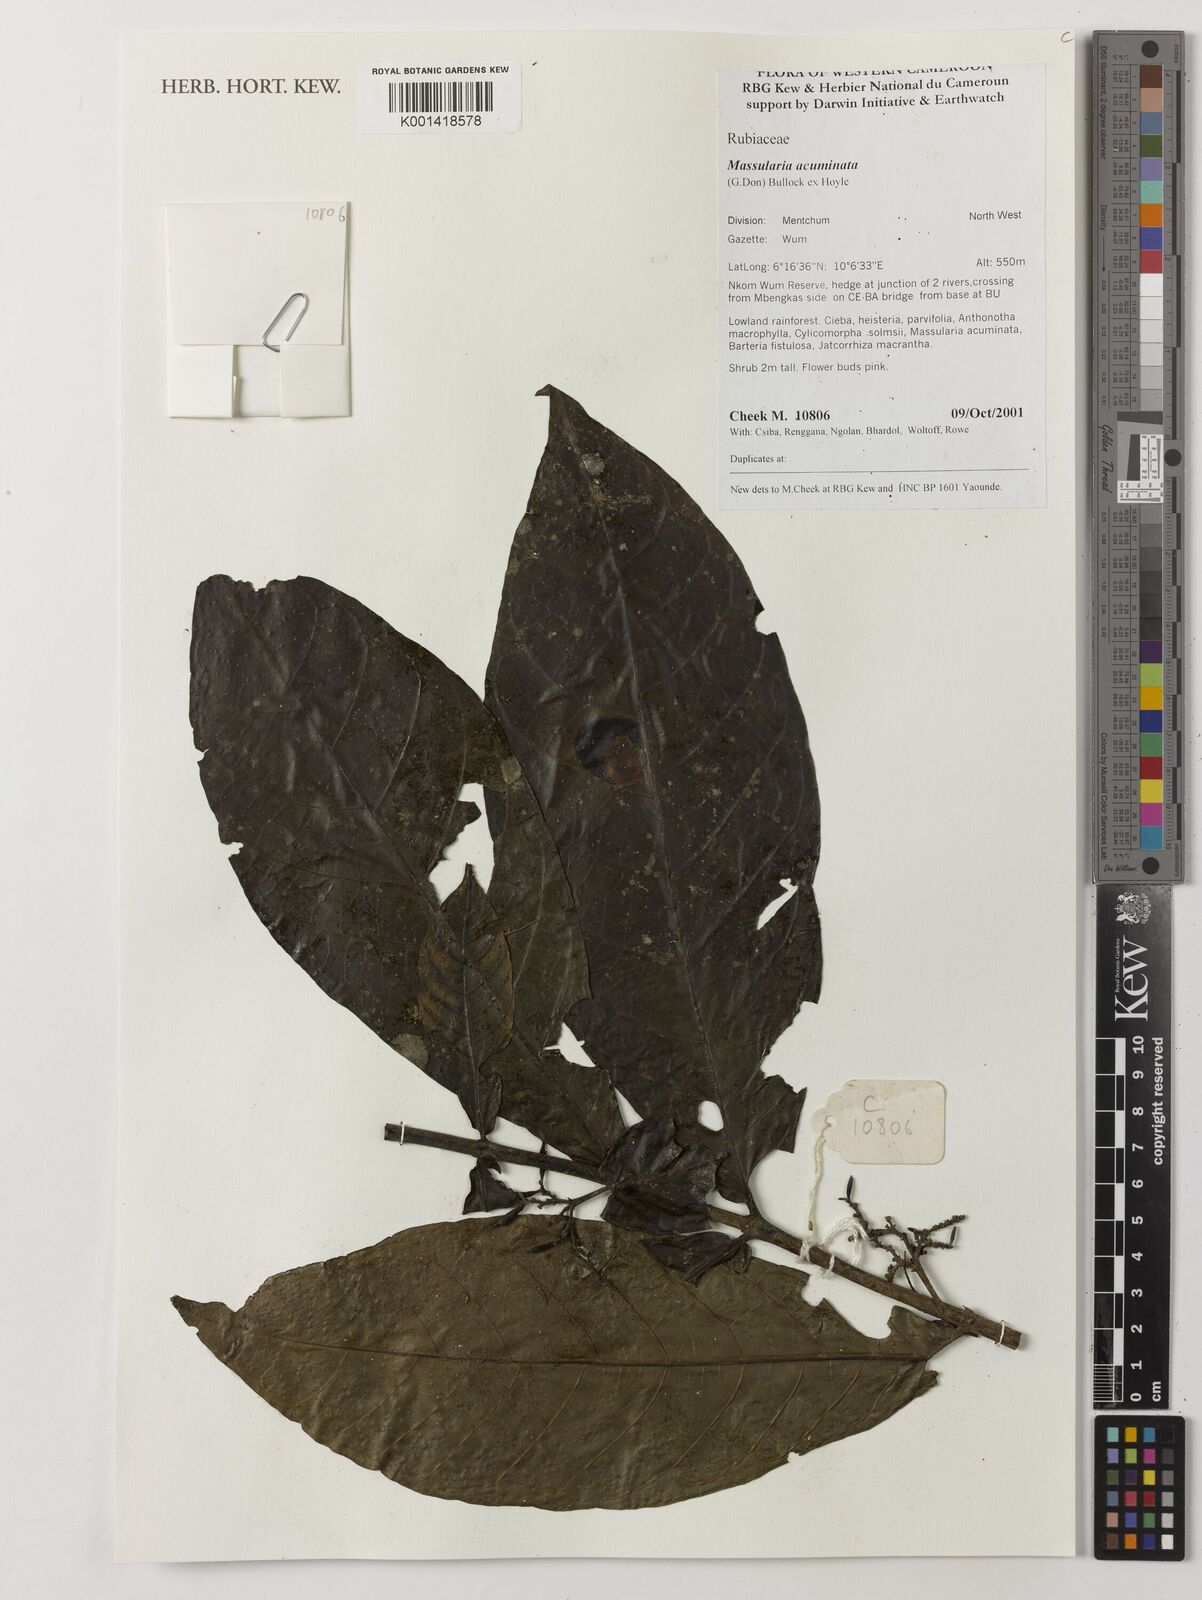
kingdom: Plantae
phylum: Tracheophyta
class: Magnoliopsida
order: Gentianales
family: Rubiaceae
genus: Massularia
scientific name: Massularia acuminata
